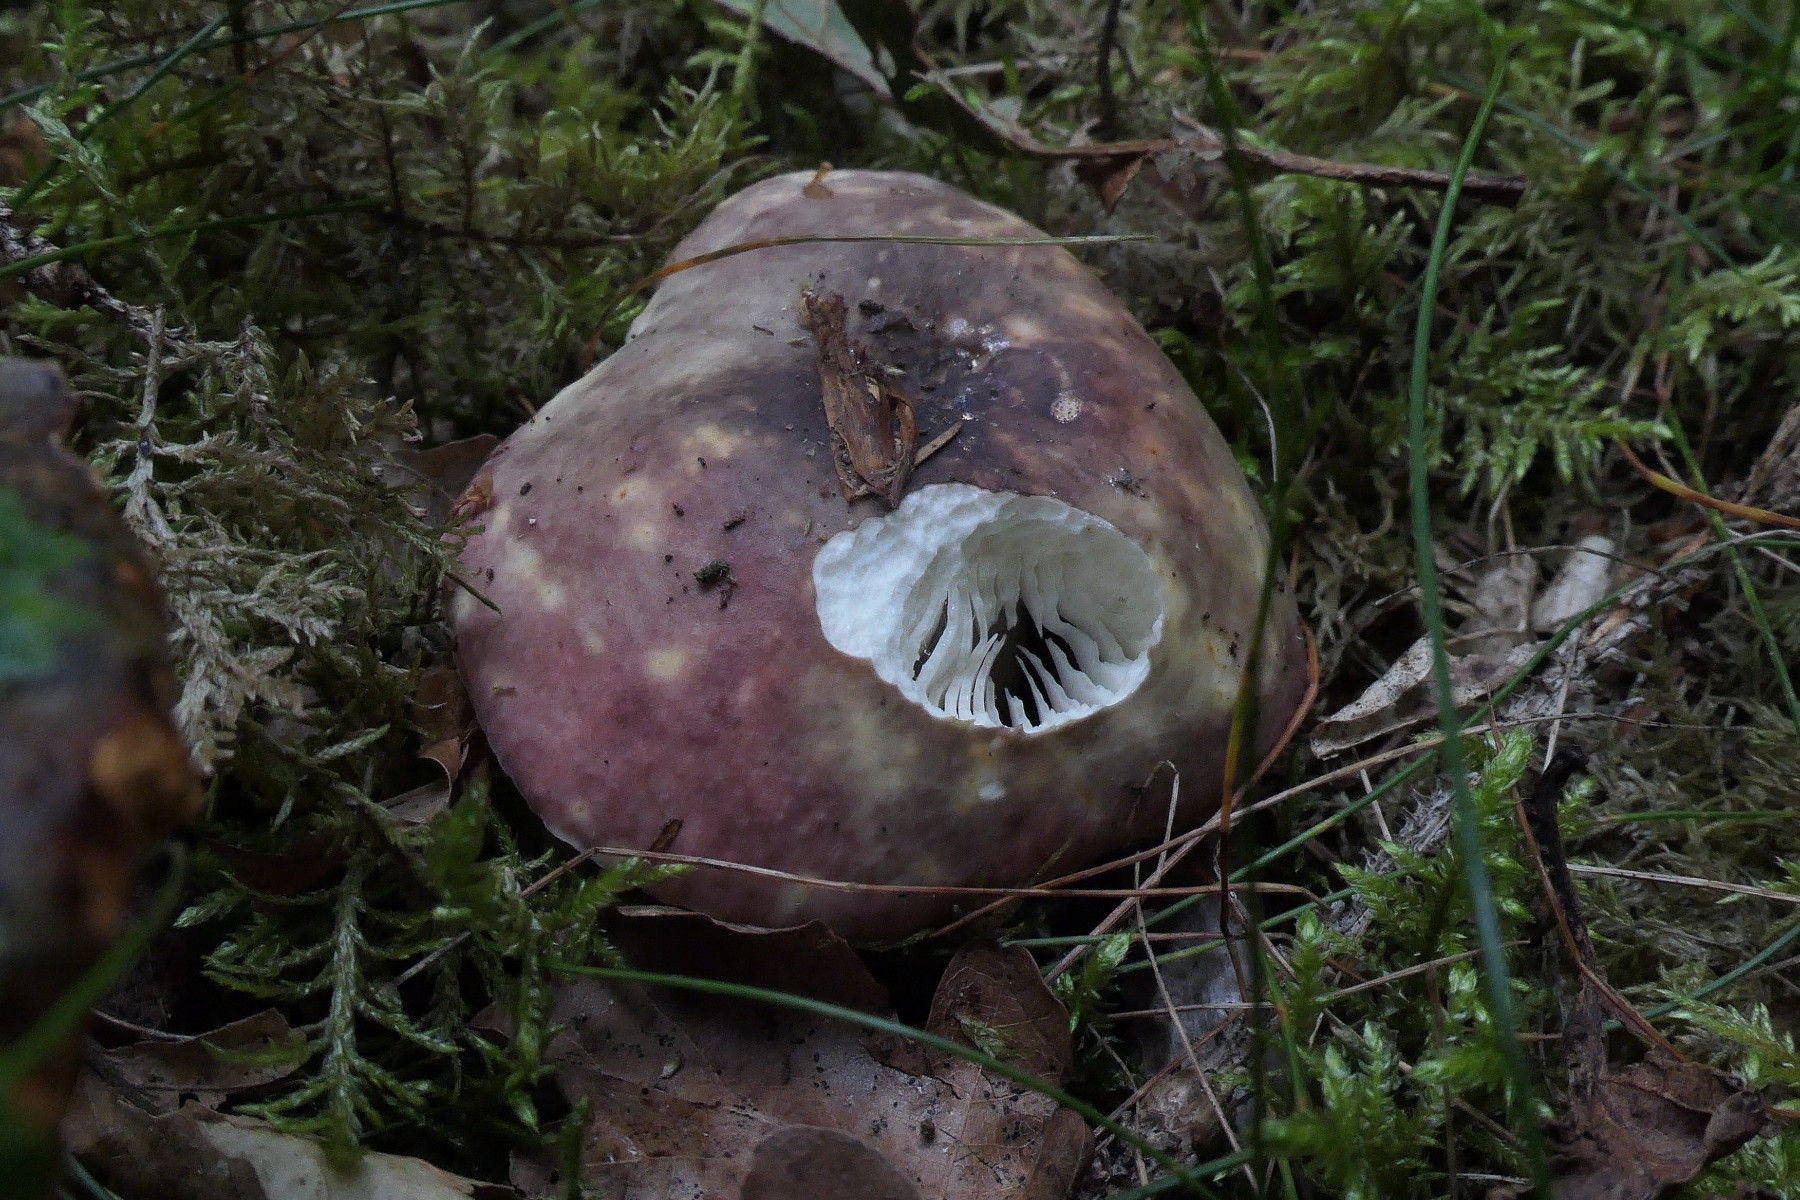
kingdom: Fungi
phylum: Basidiomycota
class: Agaricomycetes
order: Russulales
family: Russulaceae
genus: Russula
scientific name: Russula atropurpurea
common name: purpurbroget skørhat
